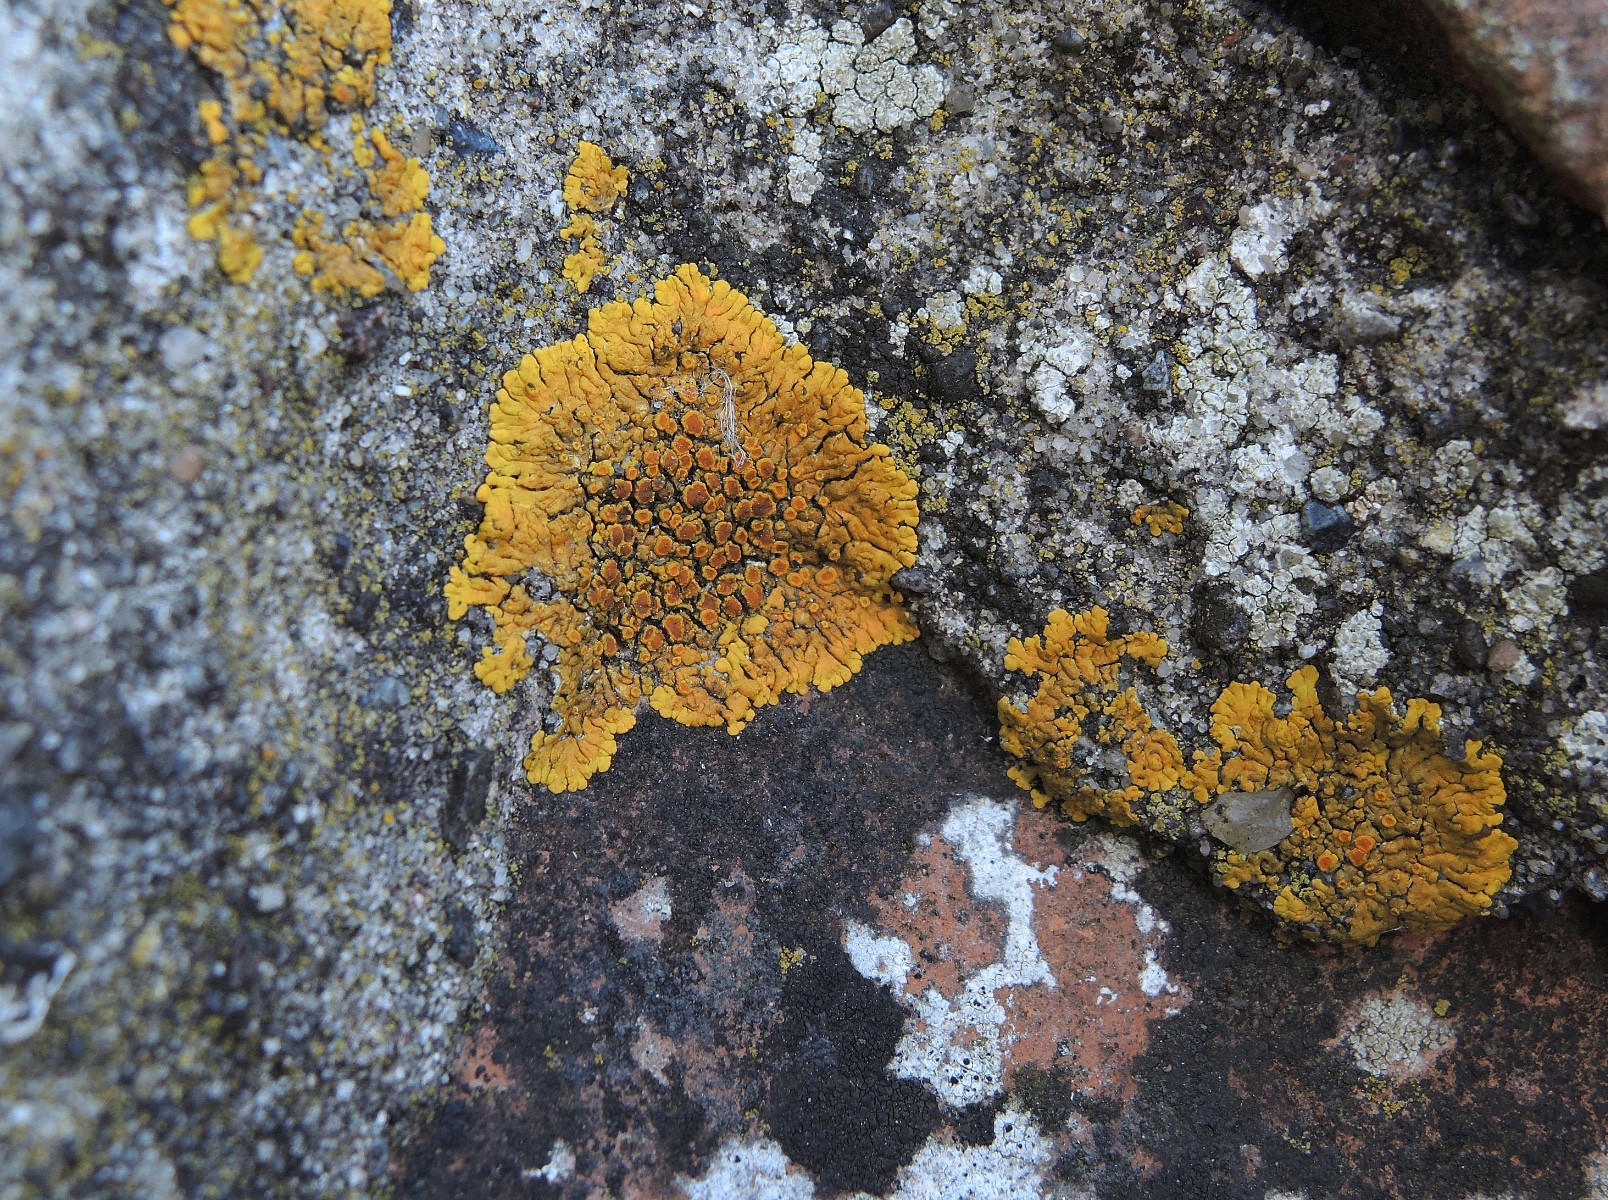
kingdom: Fungi
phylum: Ascomycota
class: Lecanoromycetes
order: Teloschistales
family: Teloschistaceae
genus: Variospora
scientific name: Variospora flavescens
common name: kalk-orangelav
